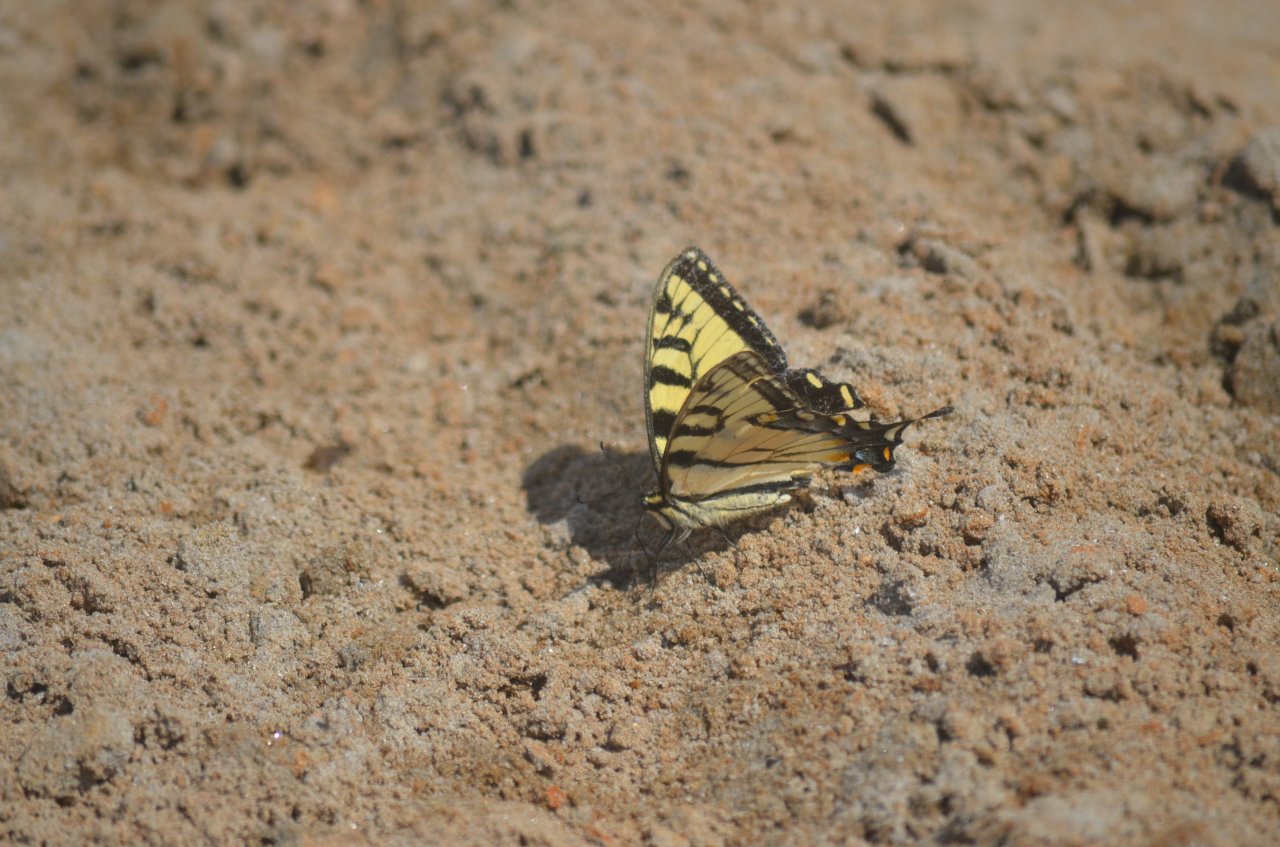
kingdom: Animalia
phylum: Arthropoda
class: Insecta
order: Lepidoptera
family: Papilionidae
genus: Pterourus
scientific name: Pterourus glaucus
